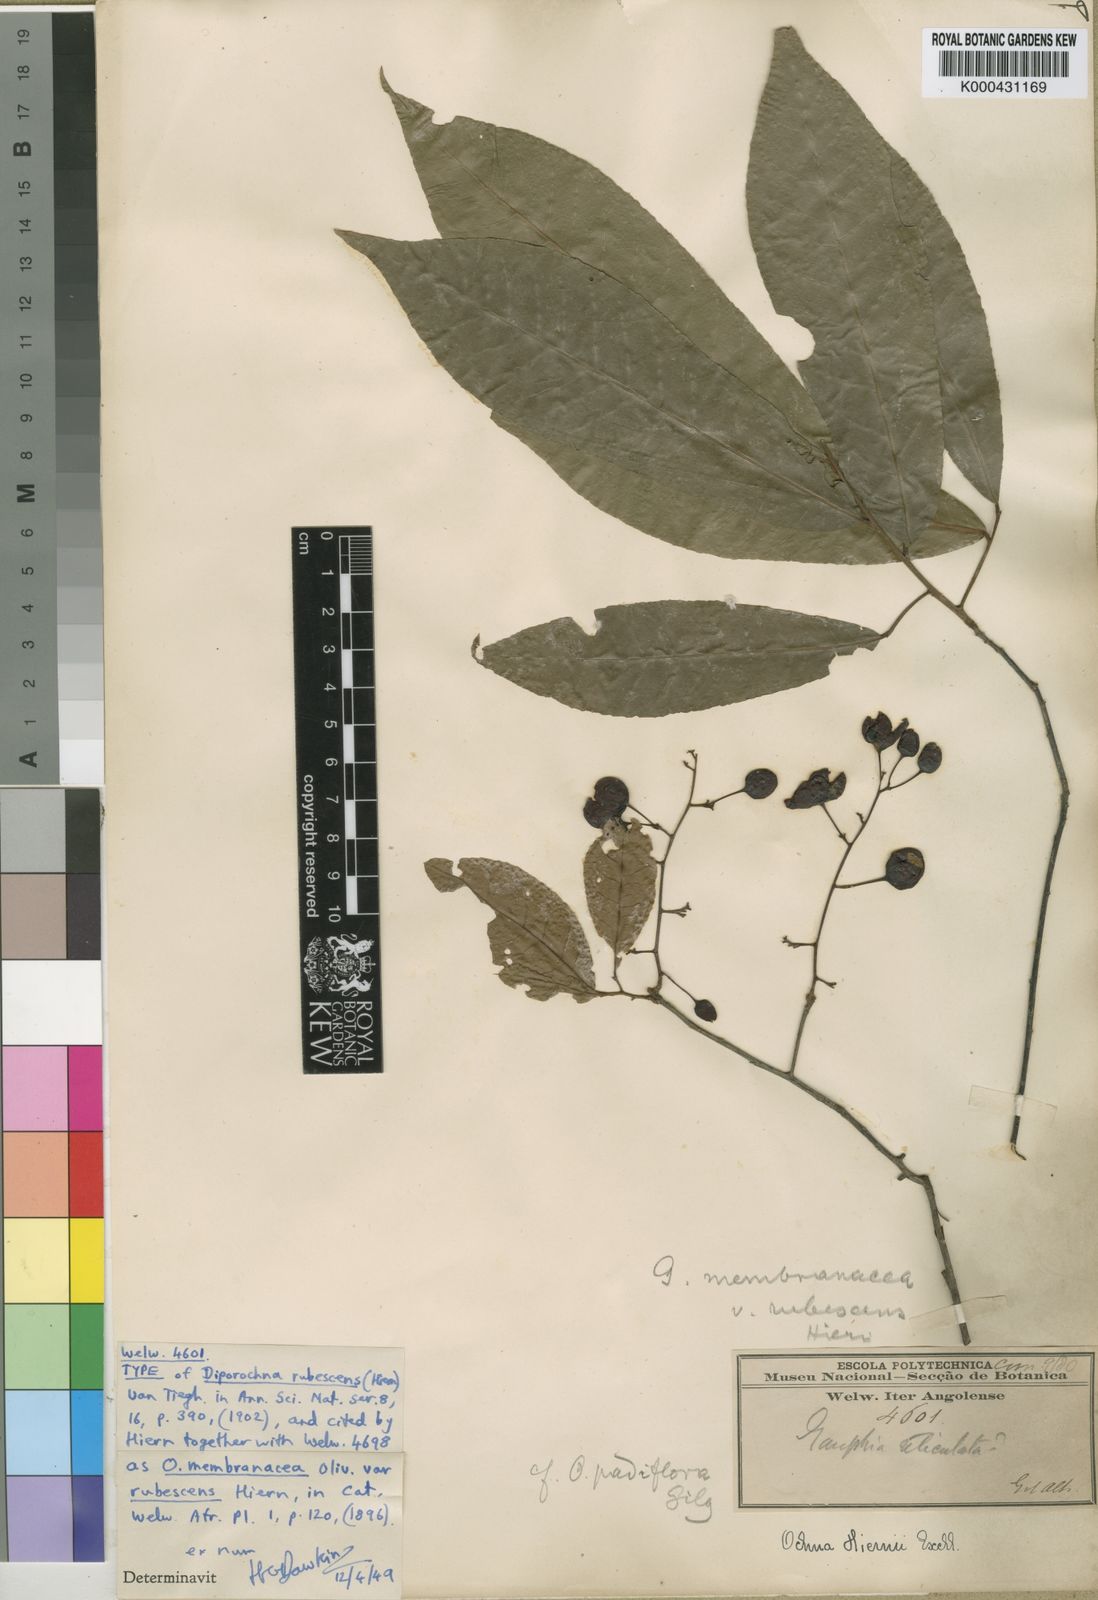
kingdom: Plantae
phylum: Tracheophyta
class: Magnoliopsida
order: Malpighiales
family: Ochnaceae
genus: Ochna
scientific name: Ochna membranacea
